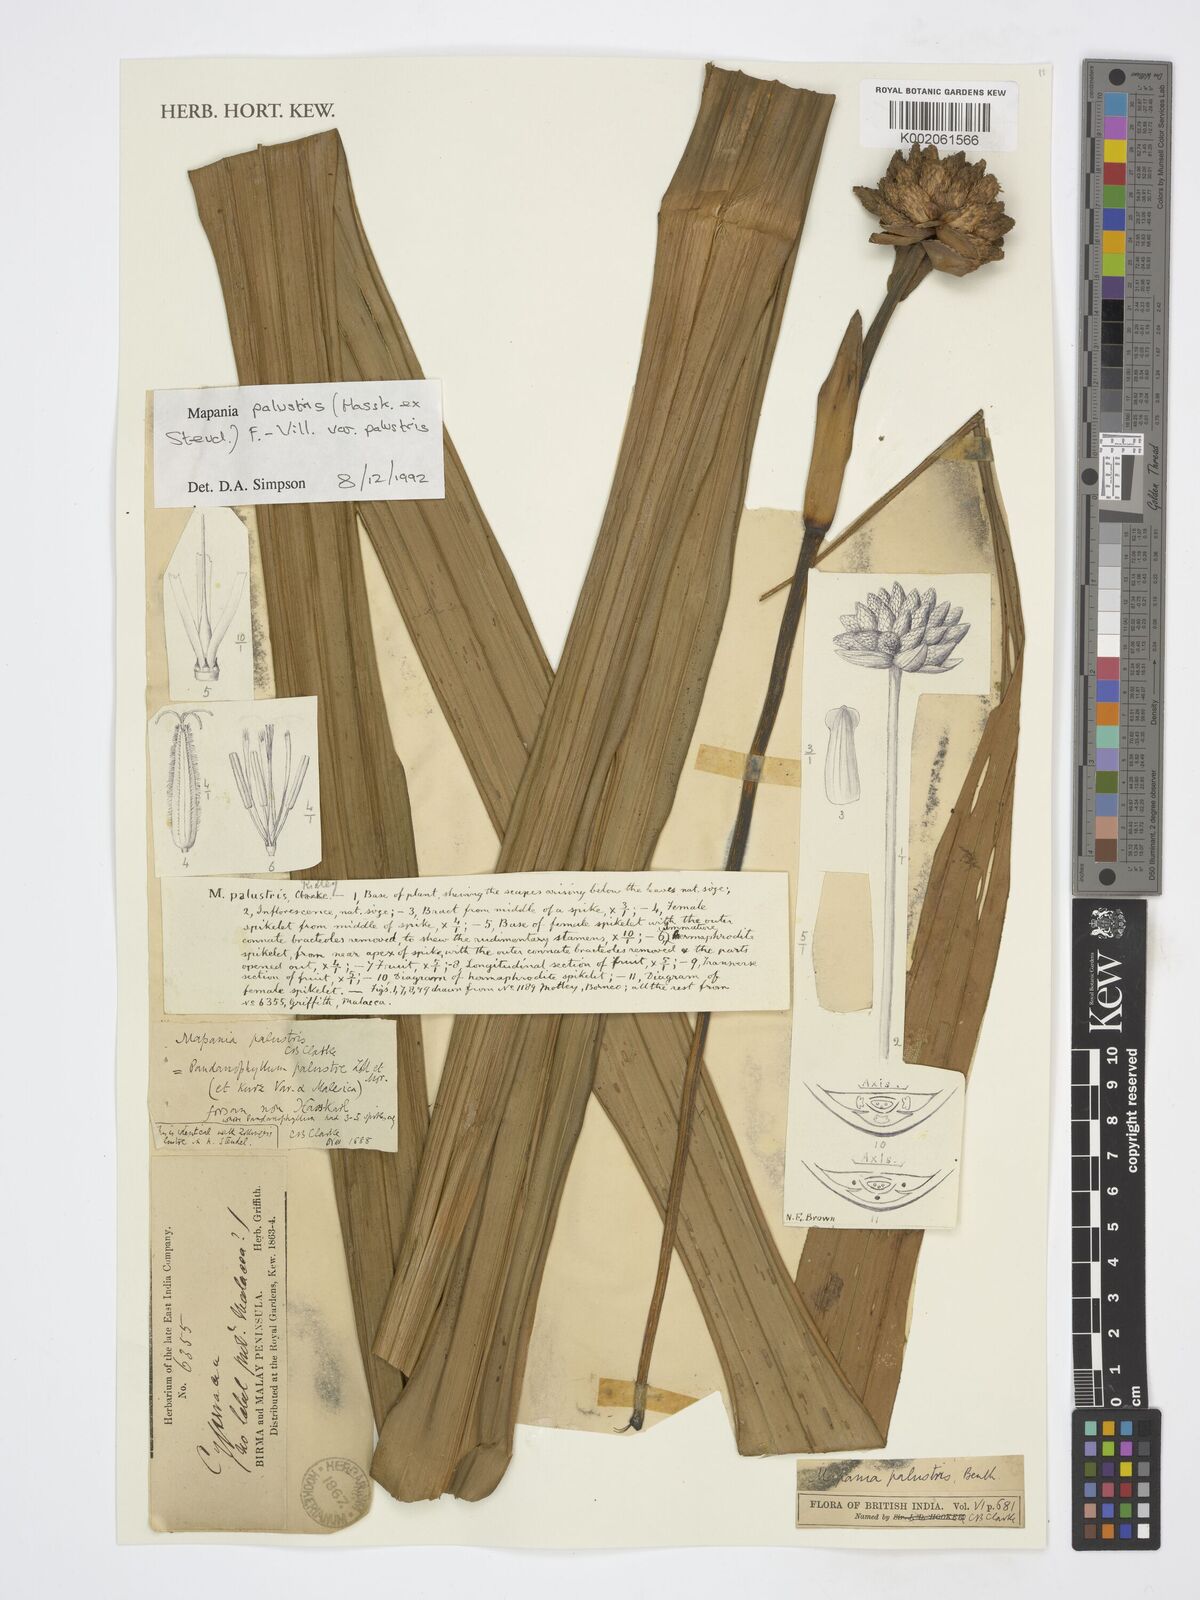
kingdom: Plantae
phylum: Tracheophyta
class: Liliopsida
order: Poales
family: Cyperaceae
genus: Mapania
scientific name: Mapania palustris
